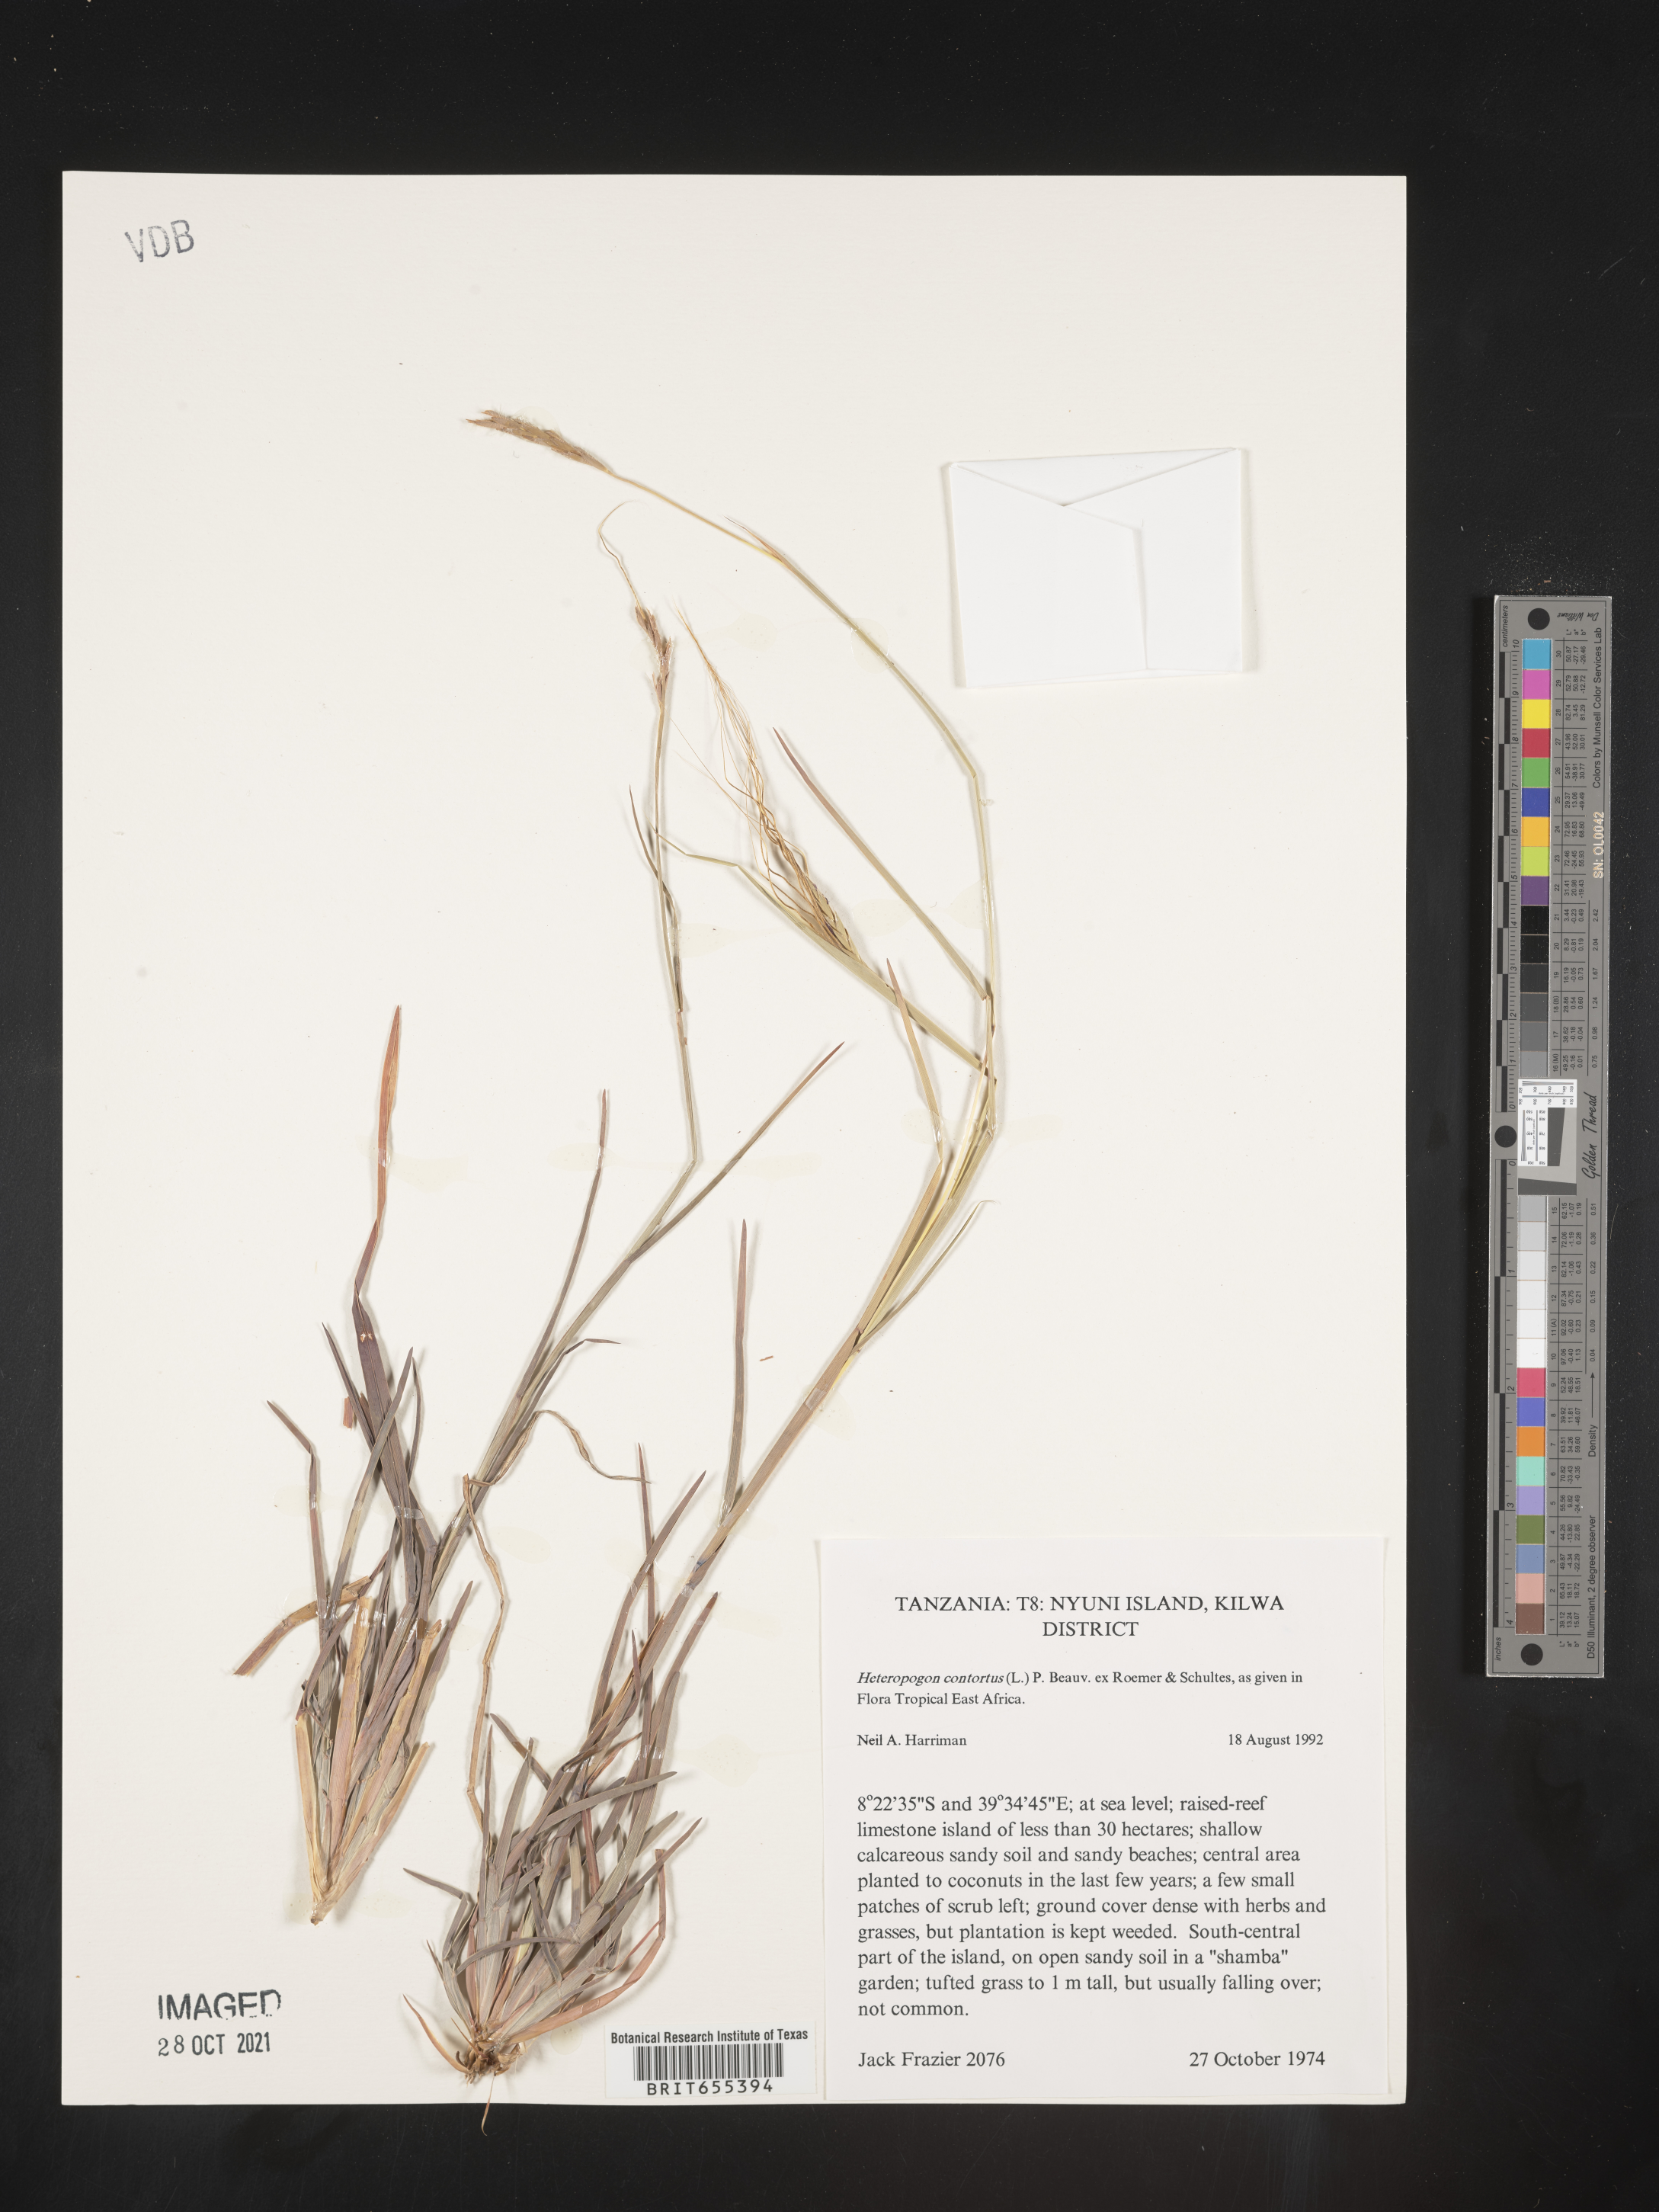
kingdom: Plantae
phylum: Tracheophyta
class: Liliopsida
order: Poales
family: Poaceae
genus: Heteropogon
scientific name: Heteropogon
